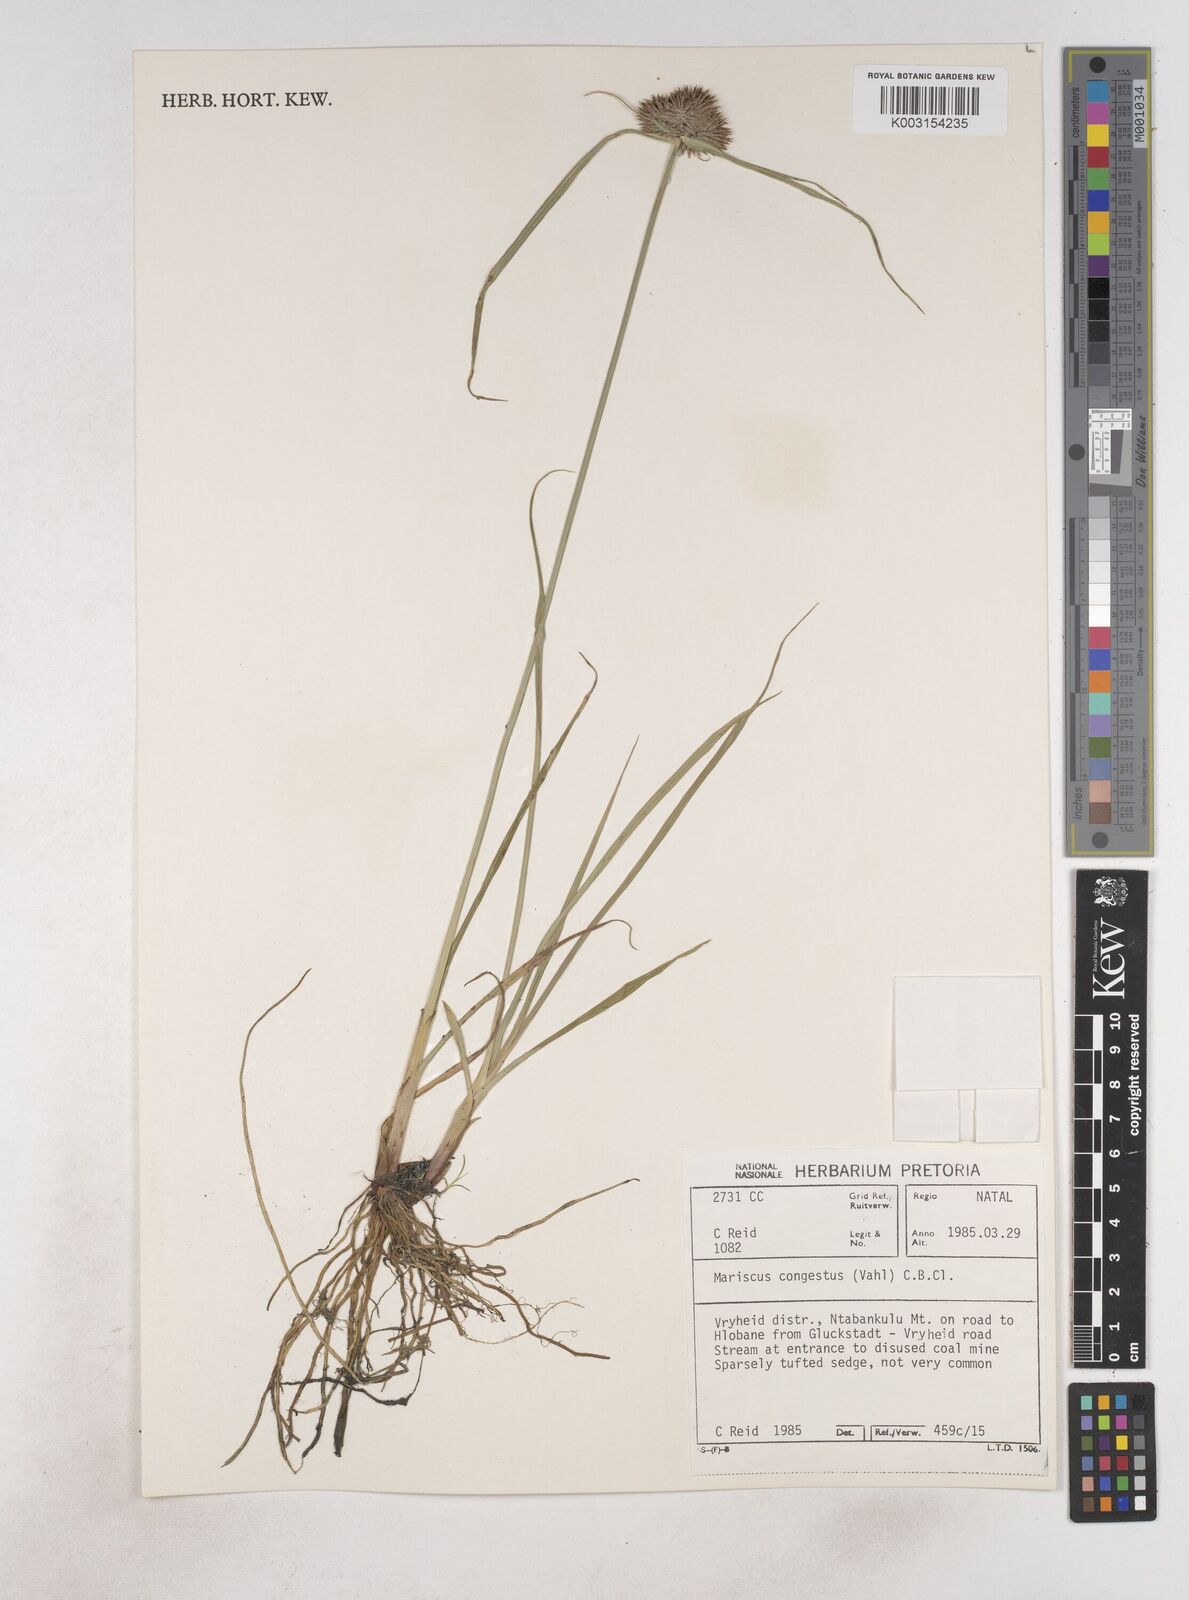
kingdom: Plantae
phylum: Tracheophyta
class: Liliopsida
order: Poales
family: Cyperaceae
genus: Cyperus
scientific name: Cyperus congestus
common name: Dense flat sedge
